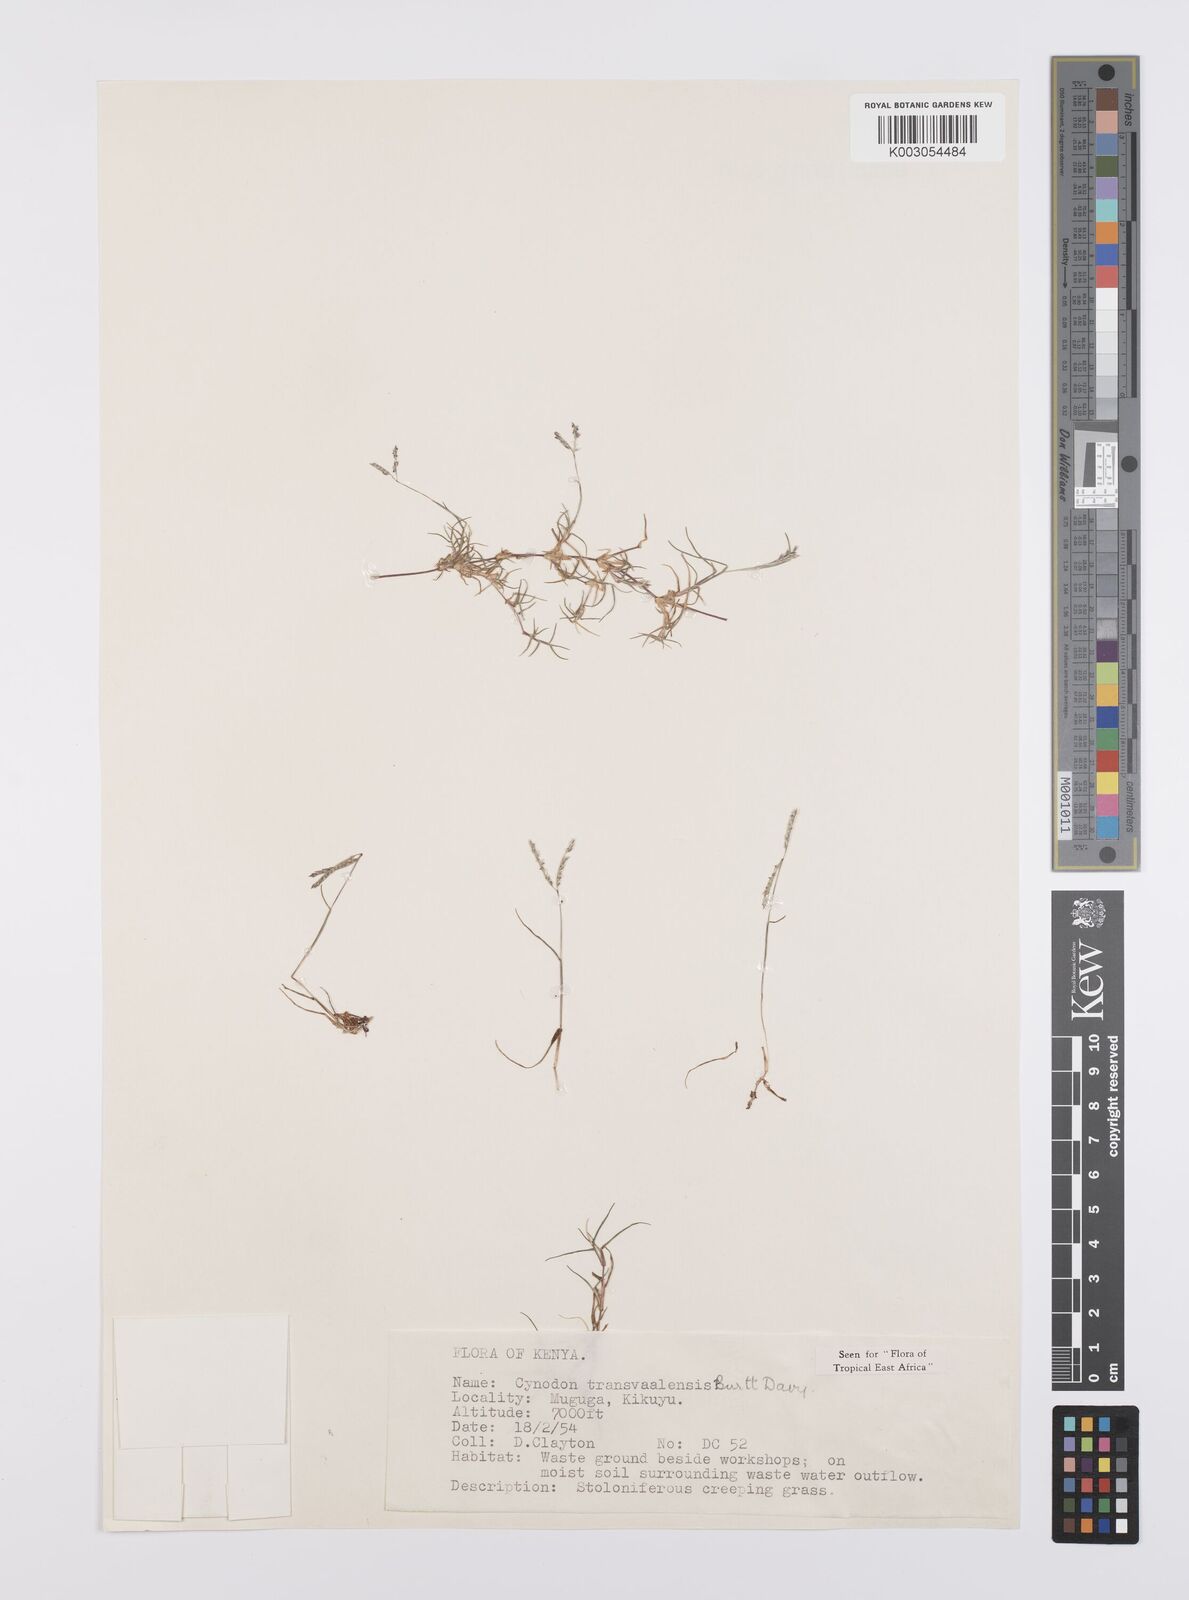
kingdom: Plantae
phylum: Tracheophyta
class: Liliopsida
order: Poales
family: Poaceae
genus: Cynodon
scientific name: Cynodon transvaalensis
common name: African bermuda grass
